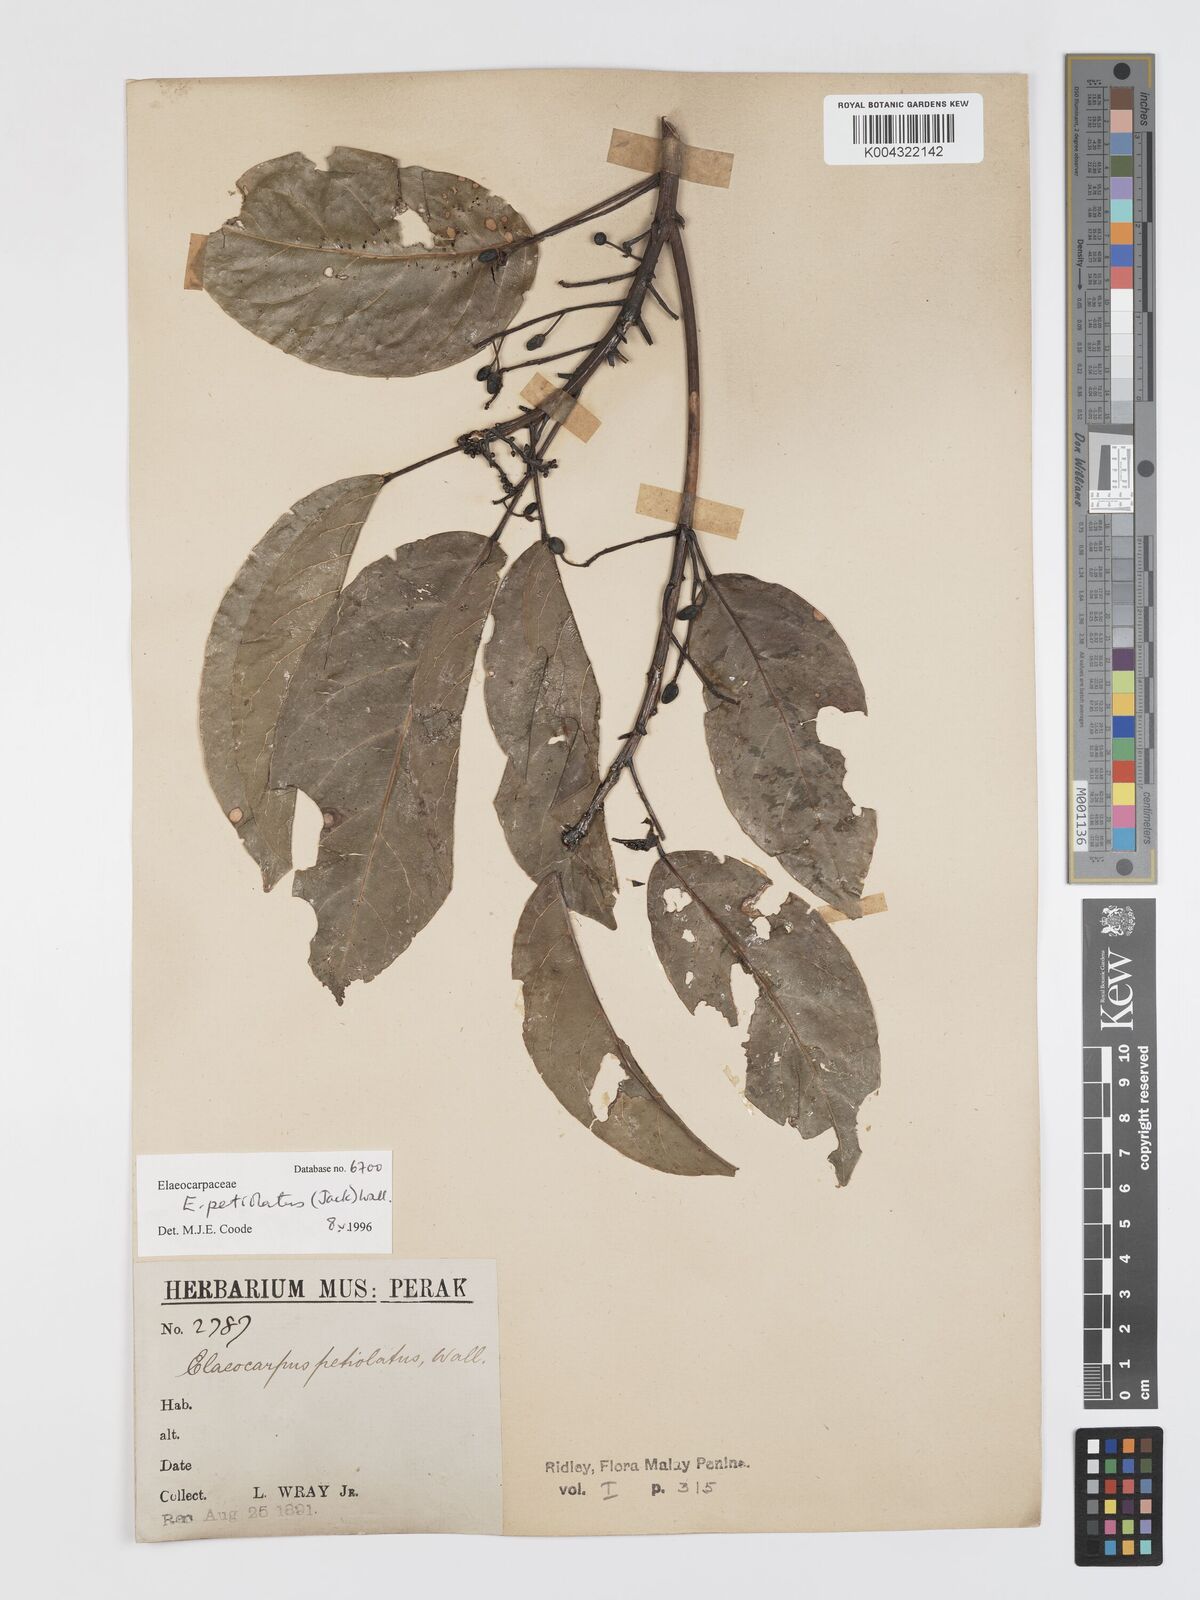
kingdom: Plantae
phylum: Tracheophyta
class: Magnoliopsida
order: Oxalidales
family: Elaeocarpaceae
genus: Elaeocarpus
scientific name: Elaeocarpus petiolatus
